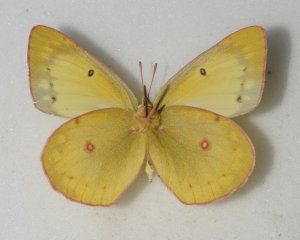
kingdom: Animalia
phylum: Arthropoda
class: Insecta
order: Lepidoptera
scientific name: Lepidoptera
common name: Butterflies
